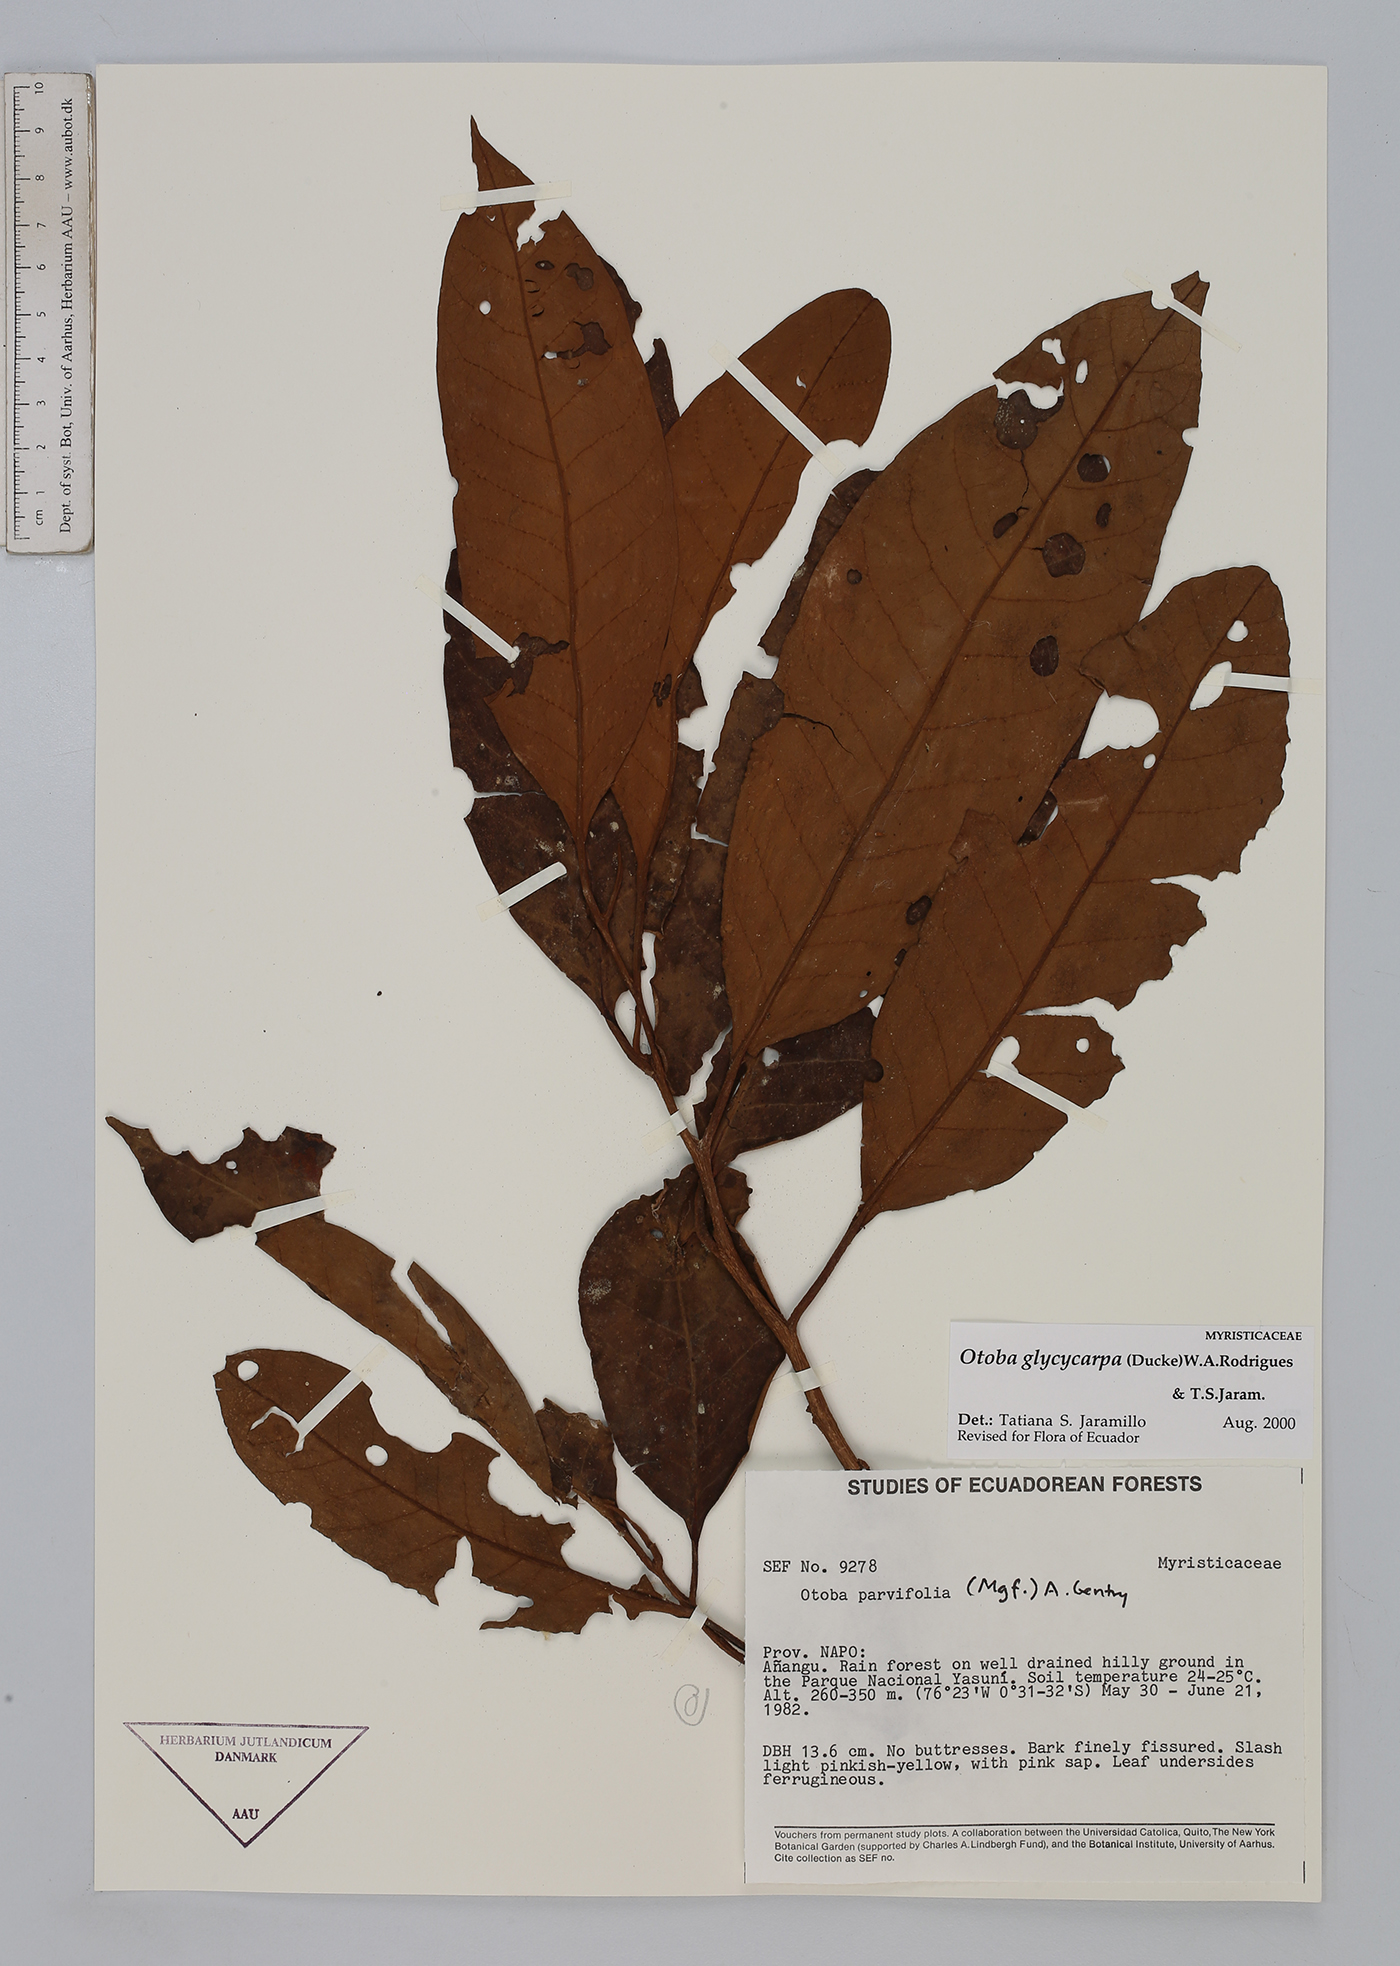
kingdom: Plantae
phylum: Tracheophyta
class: Magnoliopsida
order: Magnoliales
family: Myristicaceae
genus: Otoba
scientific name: Otoba glycycarpa
